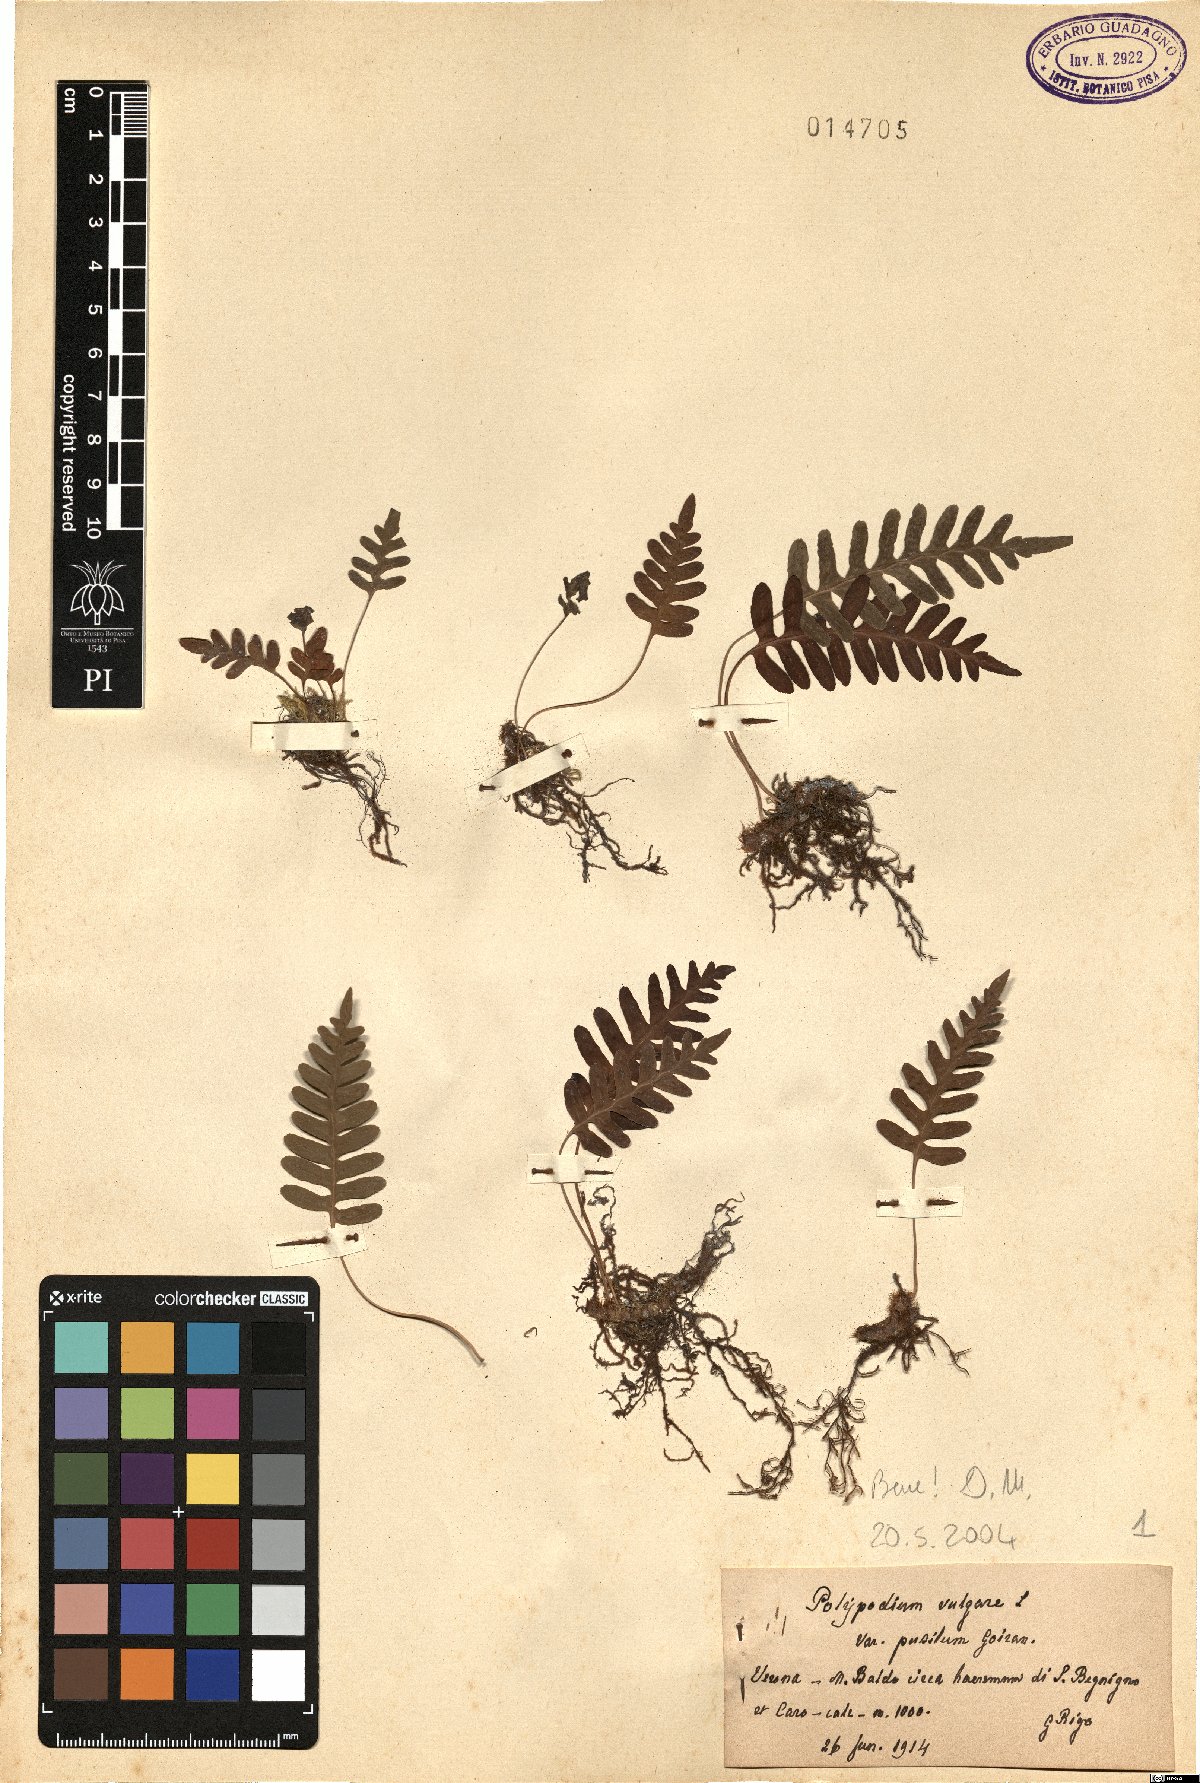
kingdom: Plantae
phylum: Tracheophyta
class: Polypodiopsida
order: Polypodiales
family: Polypodiaceae
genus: Polypodium
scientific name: Polypodium vulgare
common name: Common polypody
